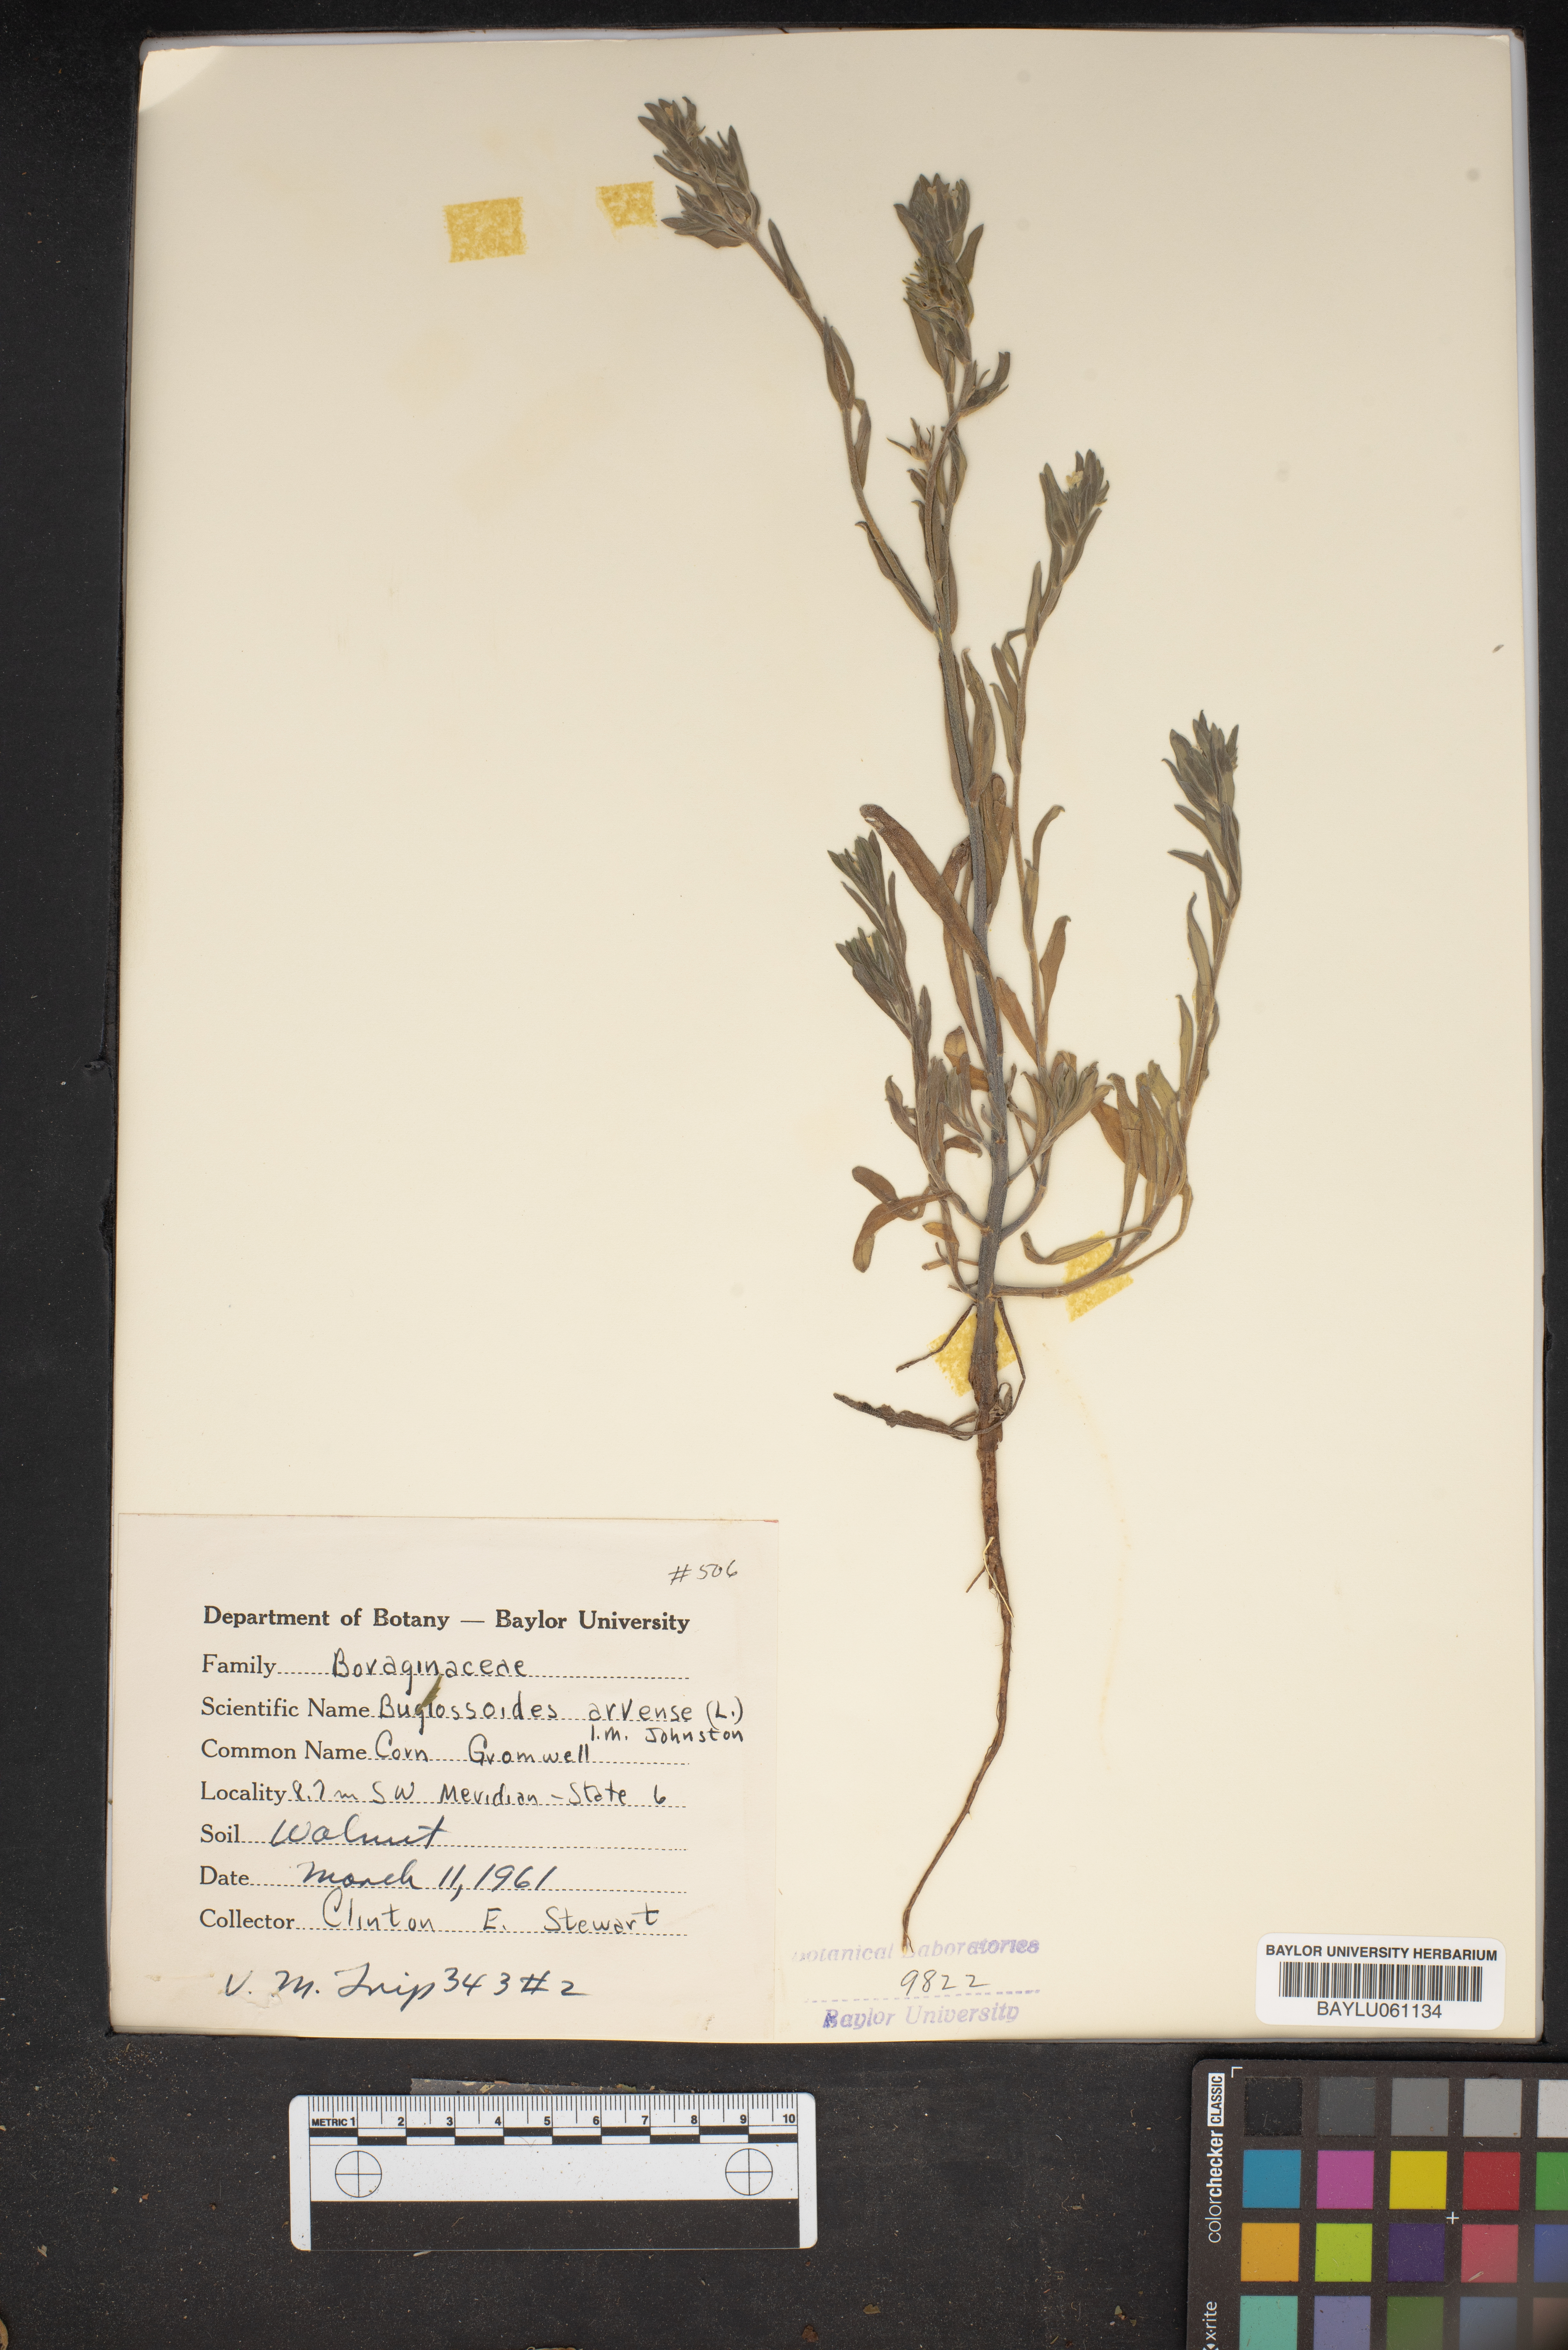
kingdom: Plantae
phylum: Tracheophyta
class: Magnoliopsida
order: Boraginales
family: Boraginaceae
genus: Buglossoides
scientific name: Buglossoides arvensis
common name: Corn gromwell
